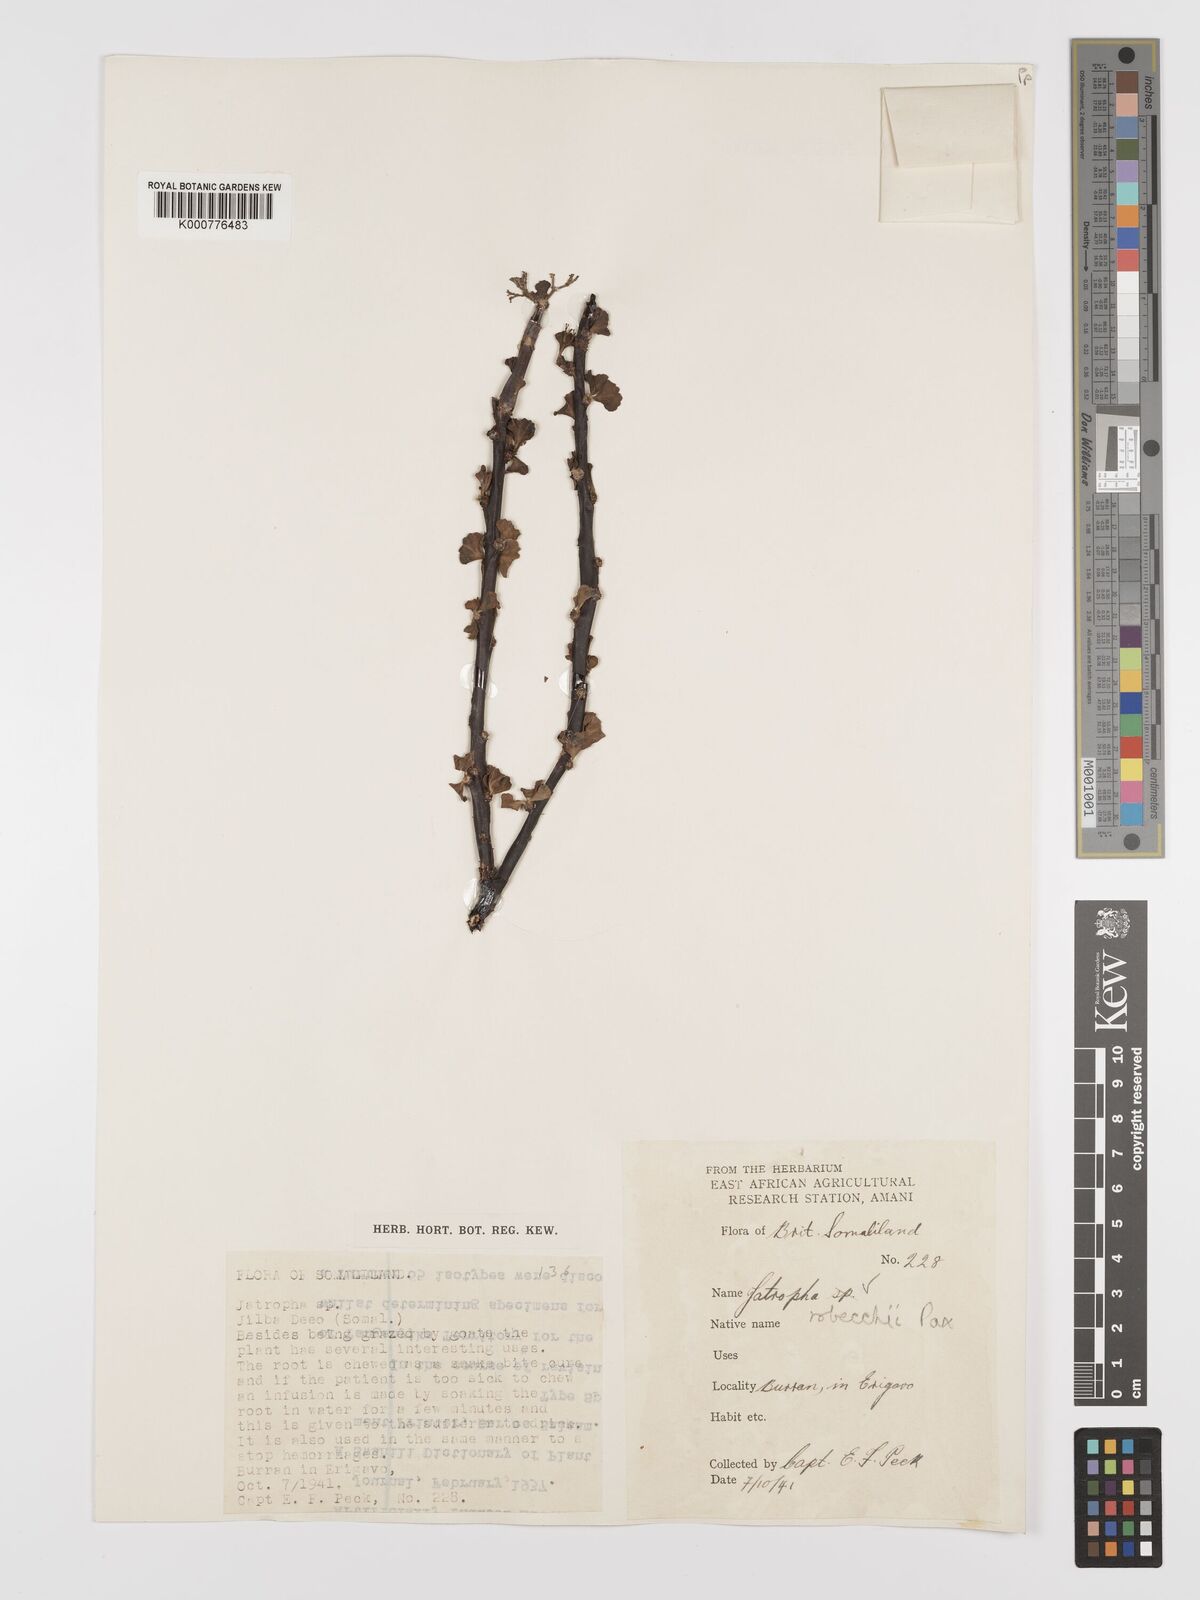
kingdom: Plantae
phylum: Tracheophyta
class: Magnoliopsida
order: Malpighiales
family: Euphorbiaceae
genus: Jatropha
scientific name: Jatropha robecchii
